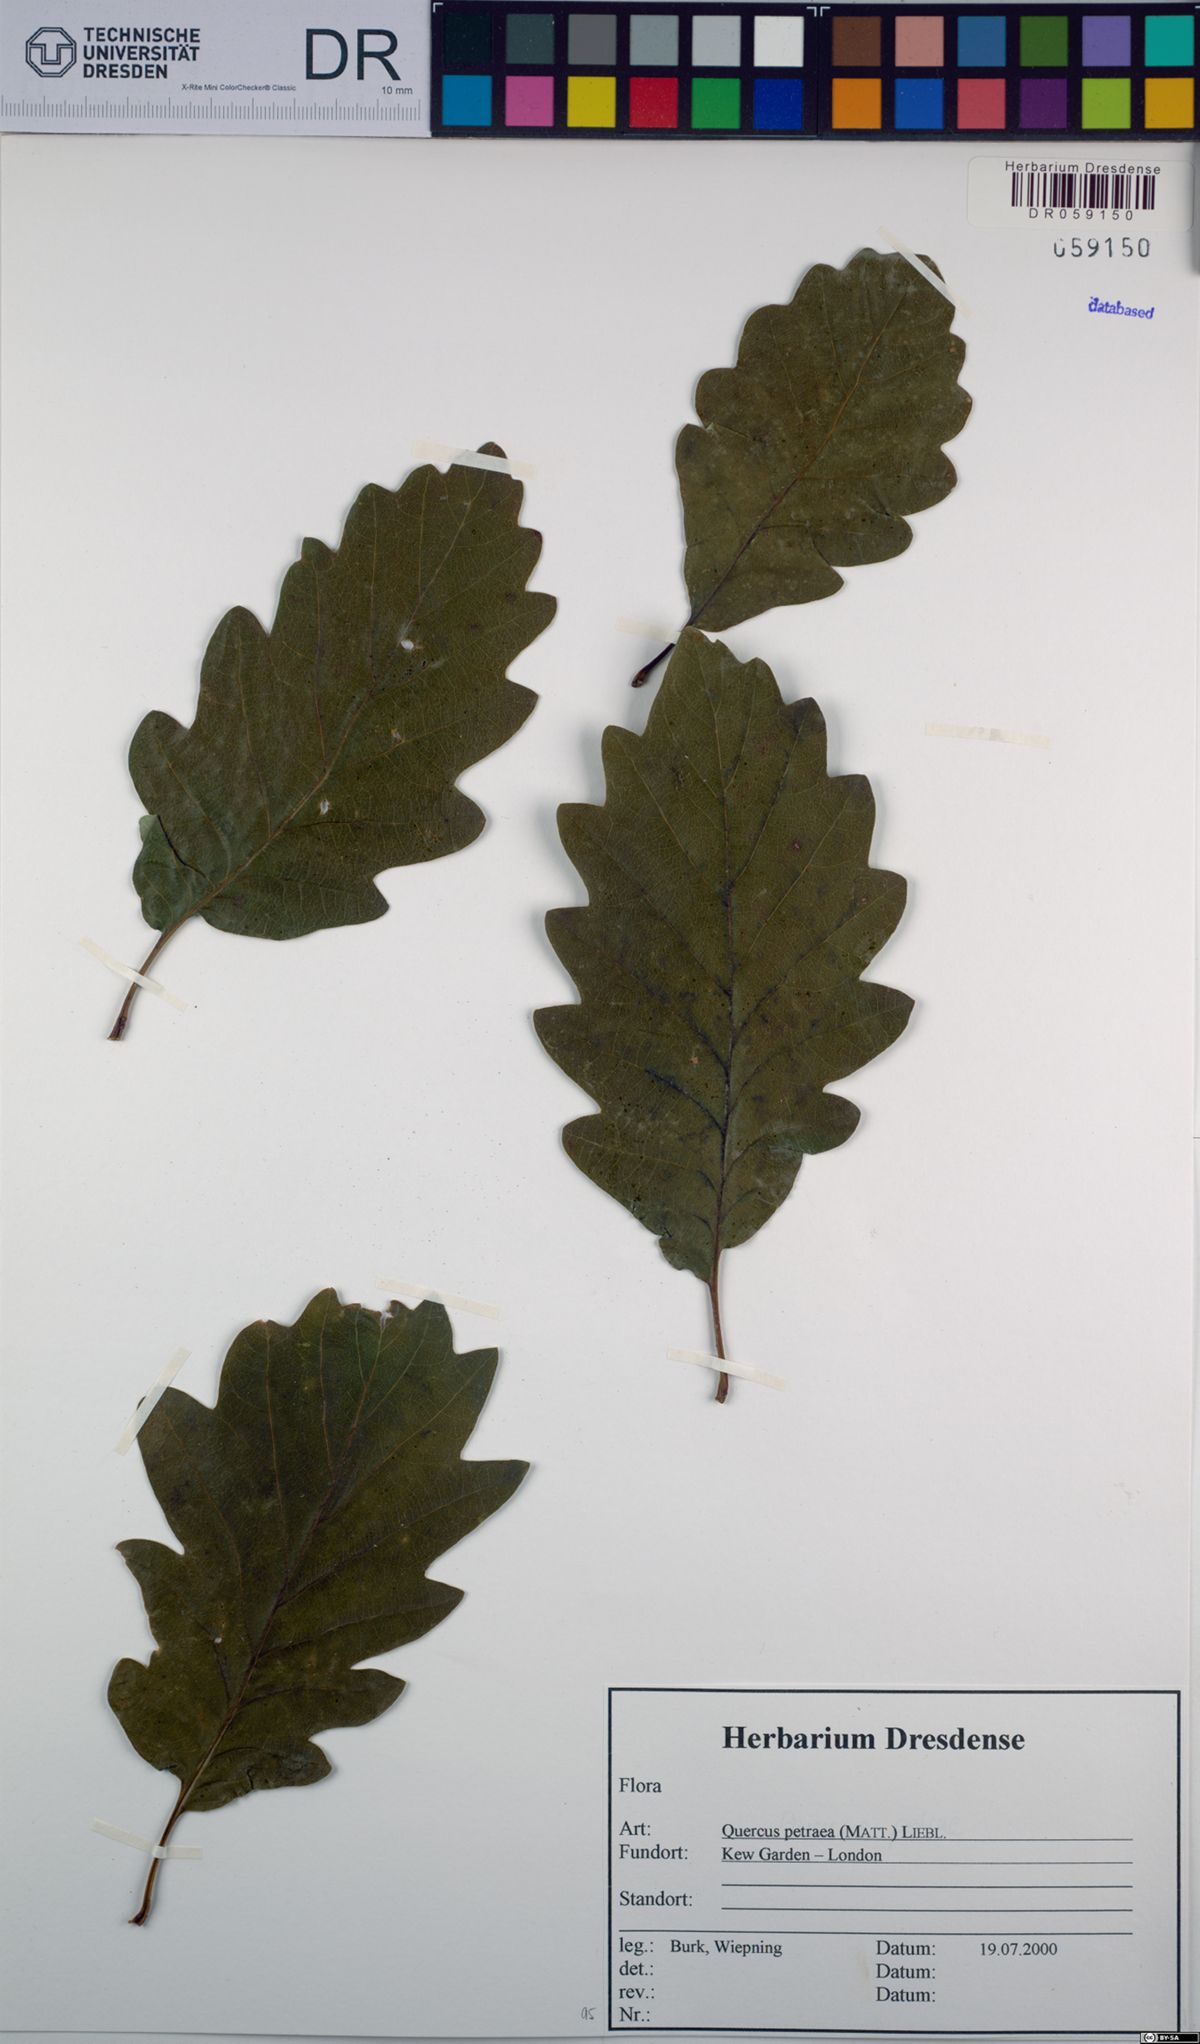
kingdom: Plantae
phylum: Tracheophyta
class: Magnoliopsida
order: Fagales
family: Fagaceae
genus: Quercus
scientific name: Quercus petraea
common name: Sessile oak
